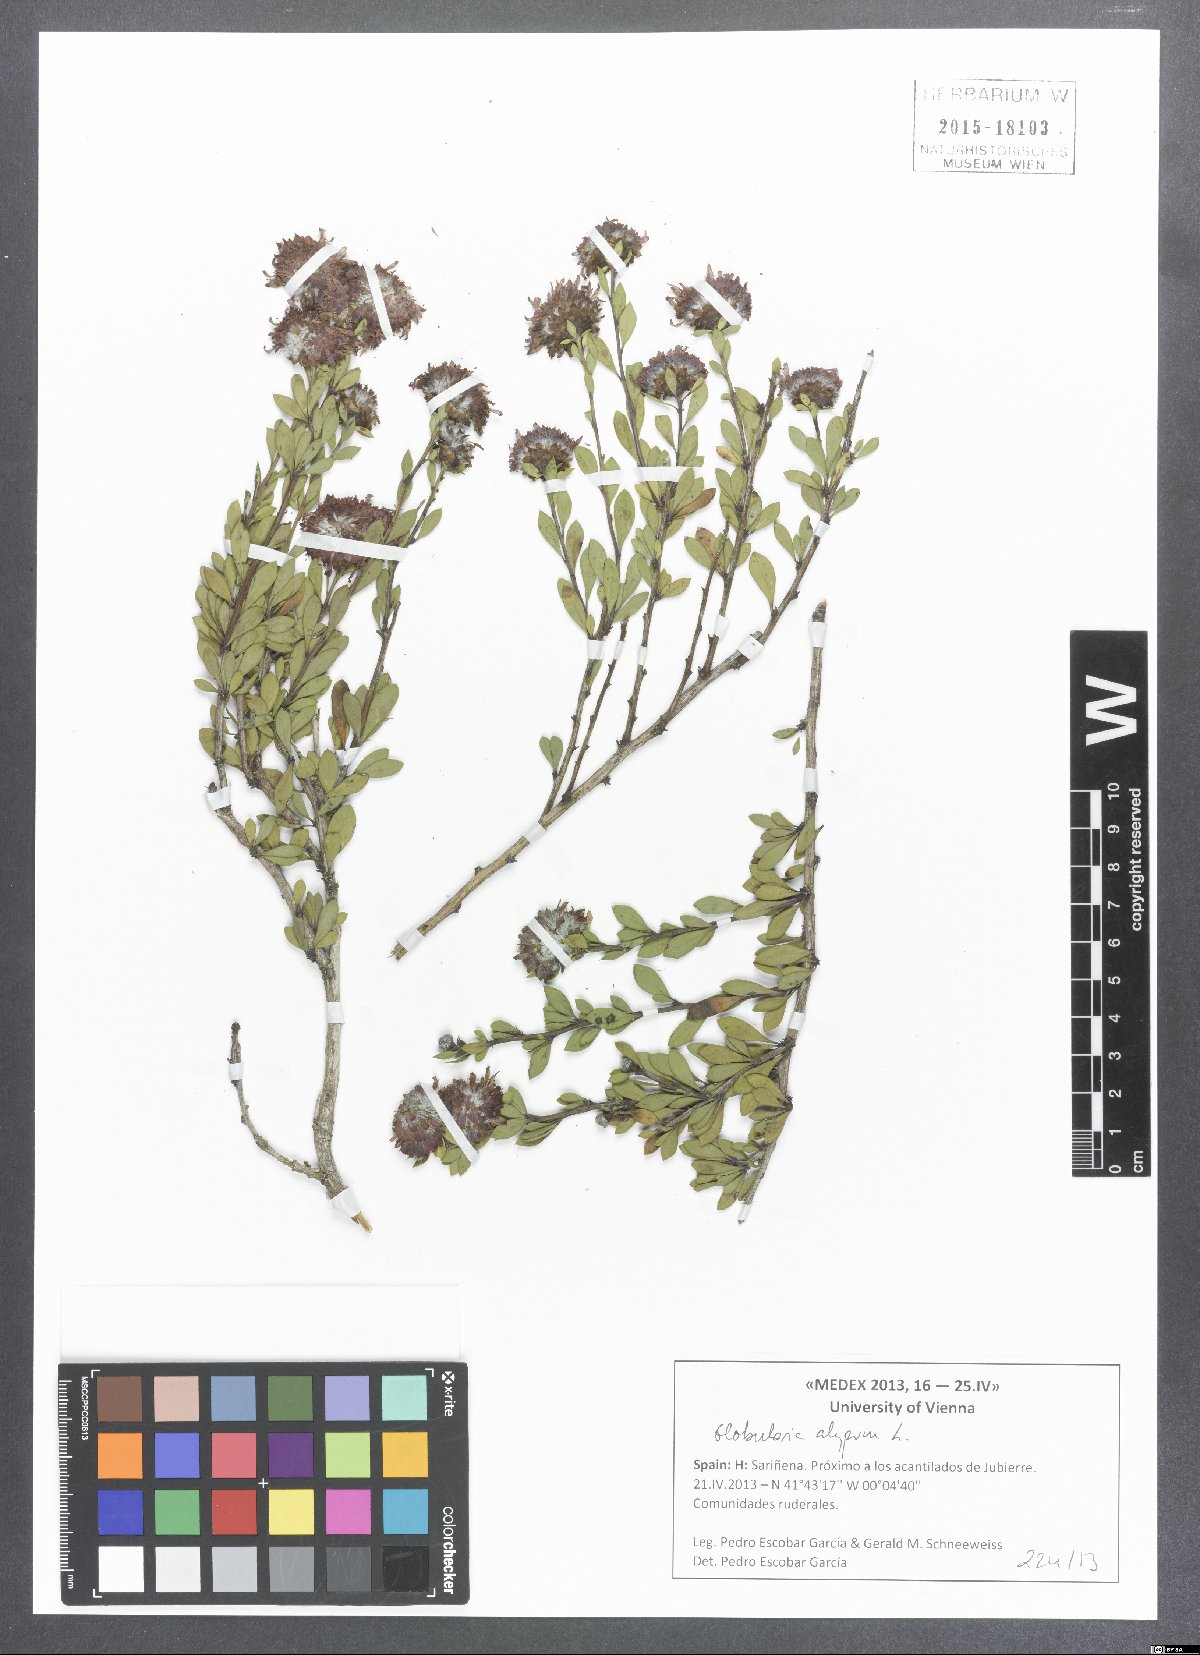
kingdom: Plantae
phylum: Tracheophyta
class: Magnoliopsida
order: Lamiales
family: Plantaginaceae
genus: Globularia
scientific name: Globularia alypum
